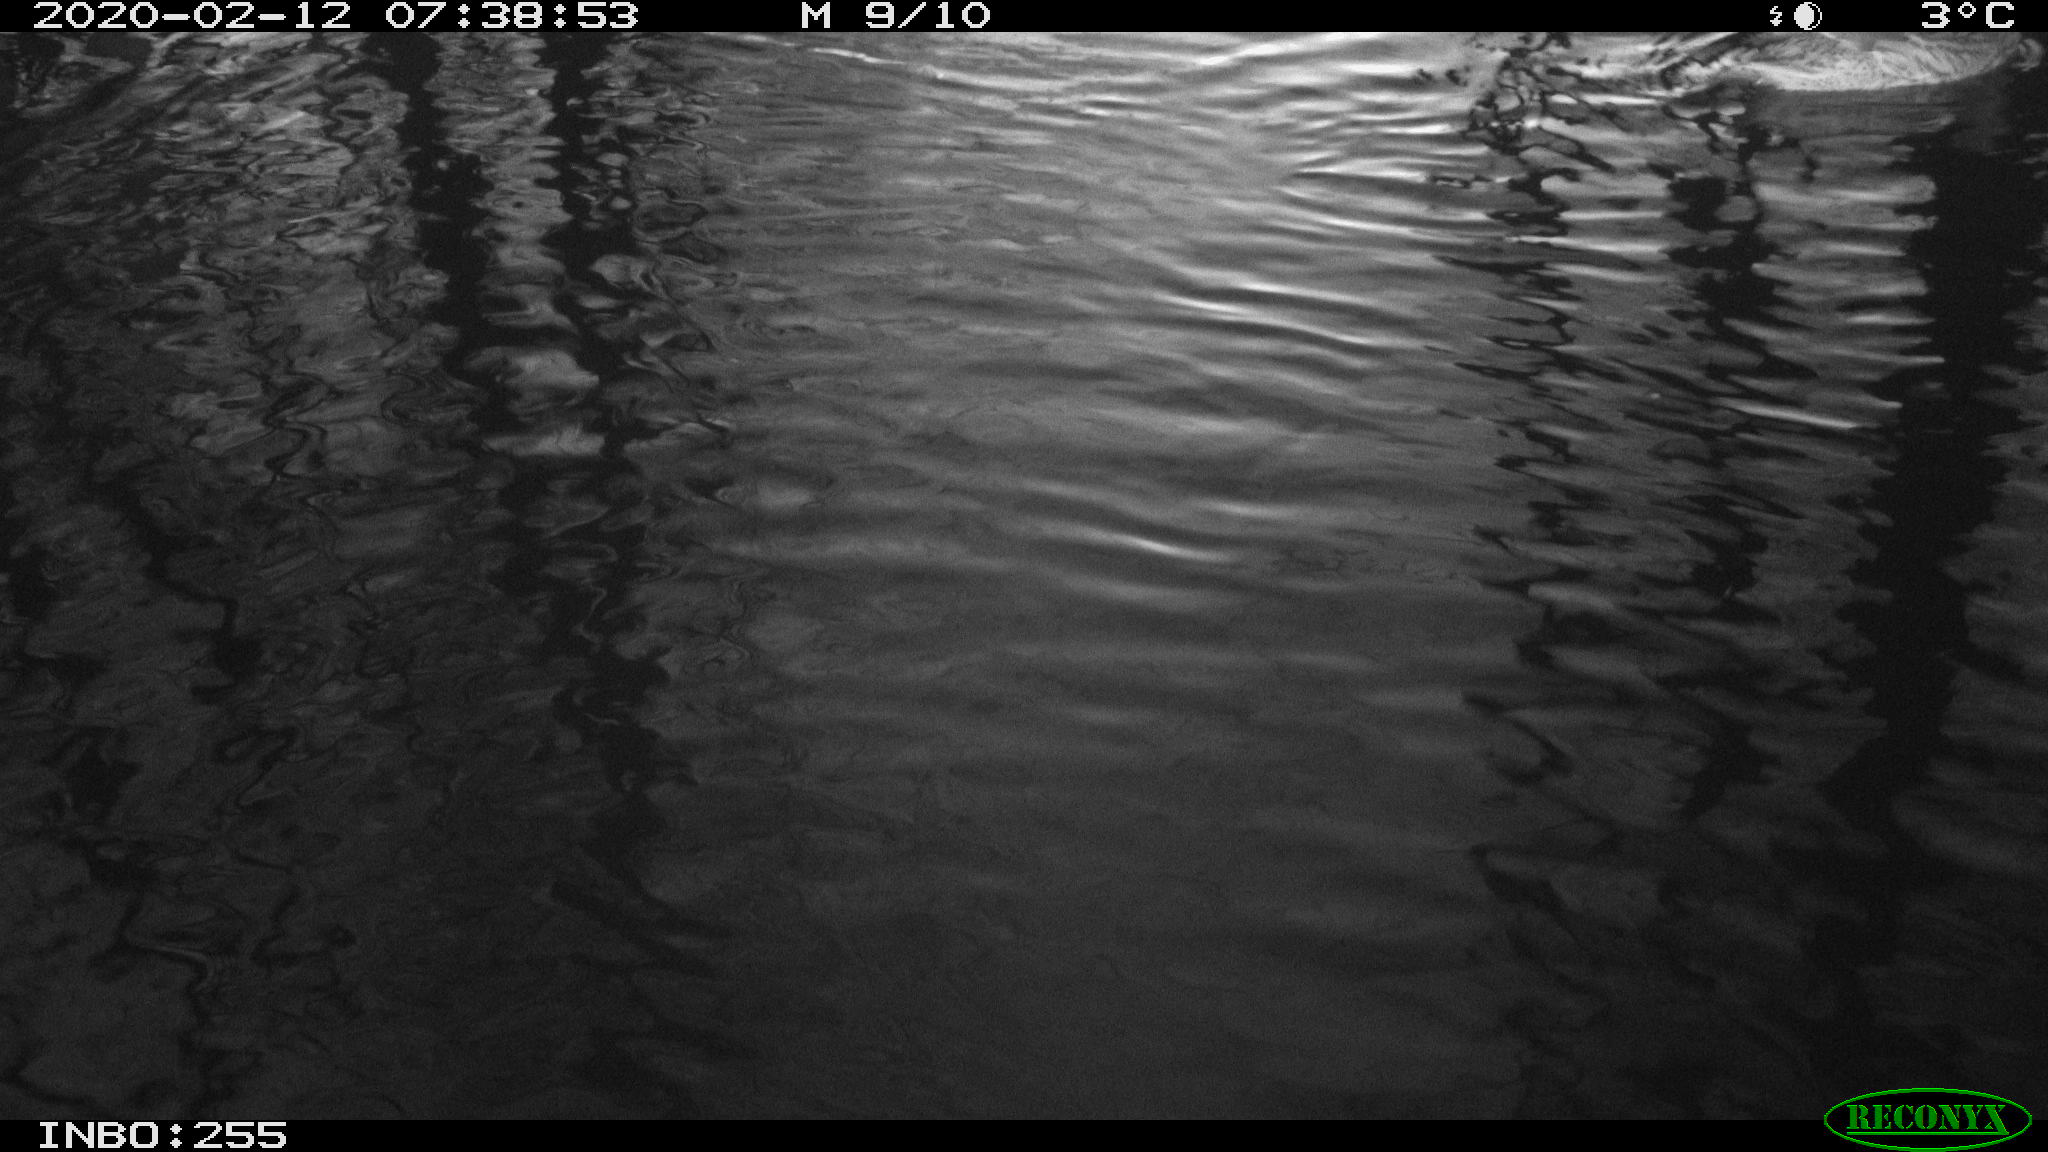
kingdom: Animalia
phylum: Chordata
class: Aves
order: Anseriformes
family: Anatidae
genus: Anas
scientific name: Anas platyrhynchos
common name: Mallard
